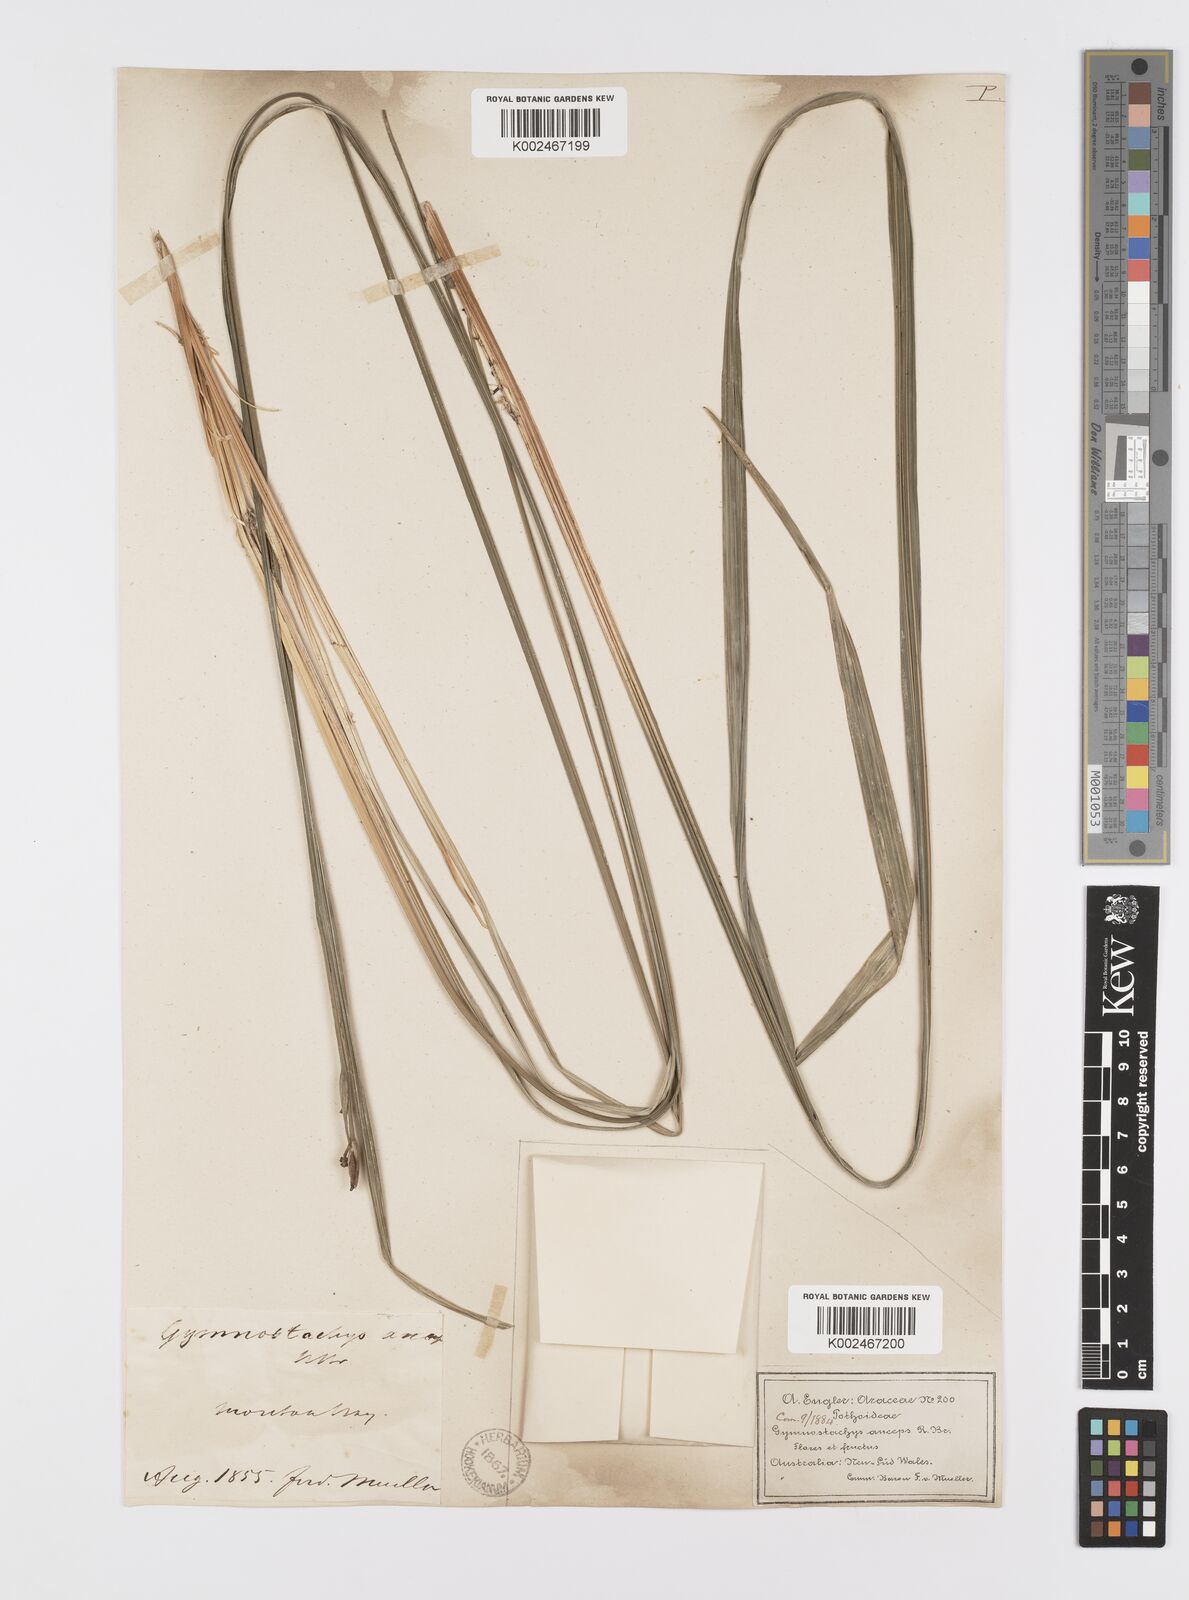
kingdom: Plantae
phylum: Tracheophyta
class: Liliopsida
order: Alismatales
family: Araceae
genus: Gymnostachys
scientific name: Gymnostachys anceps
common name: Settler's-flax
